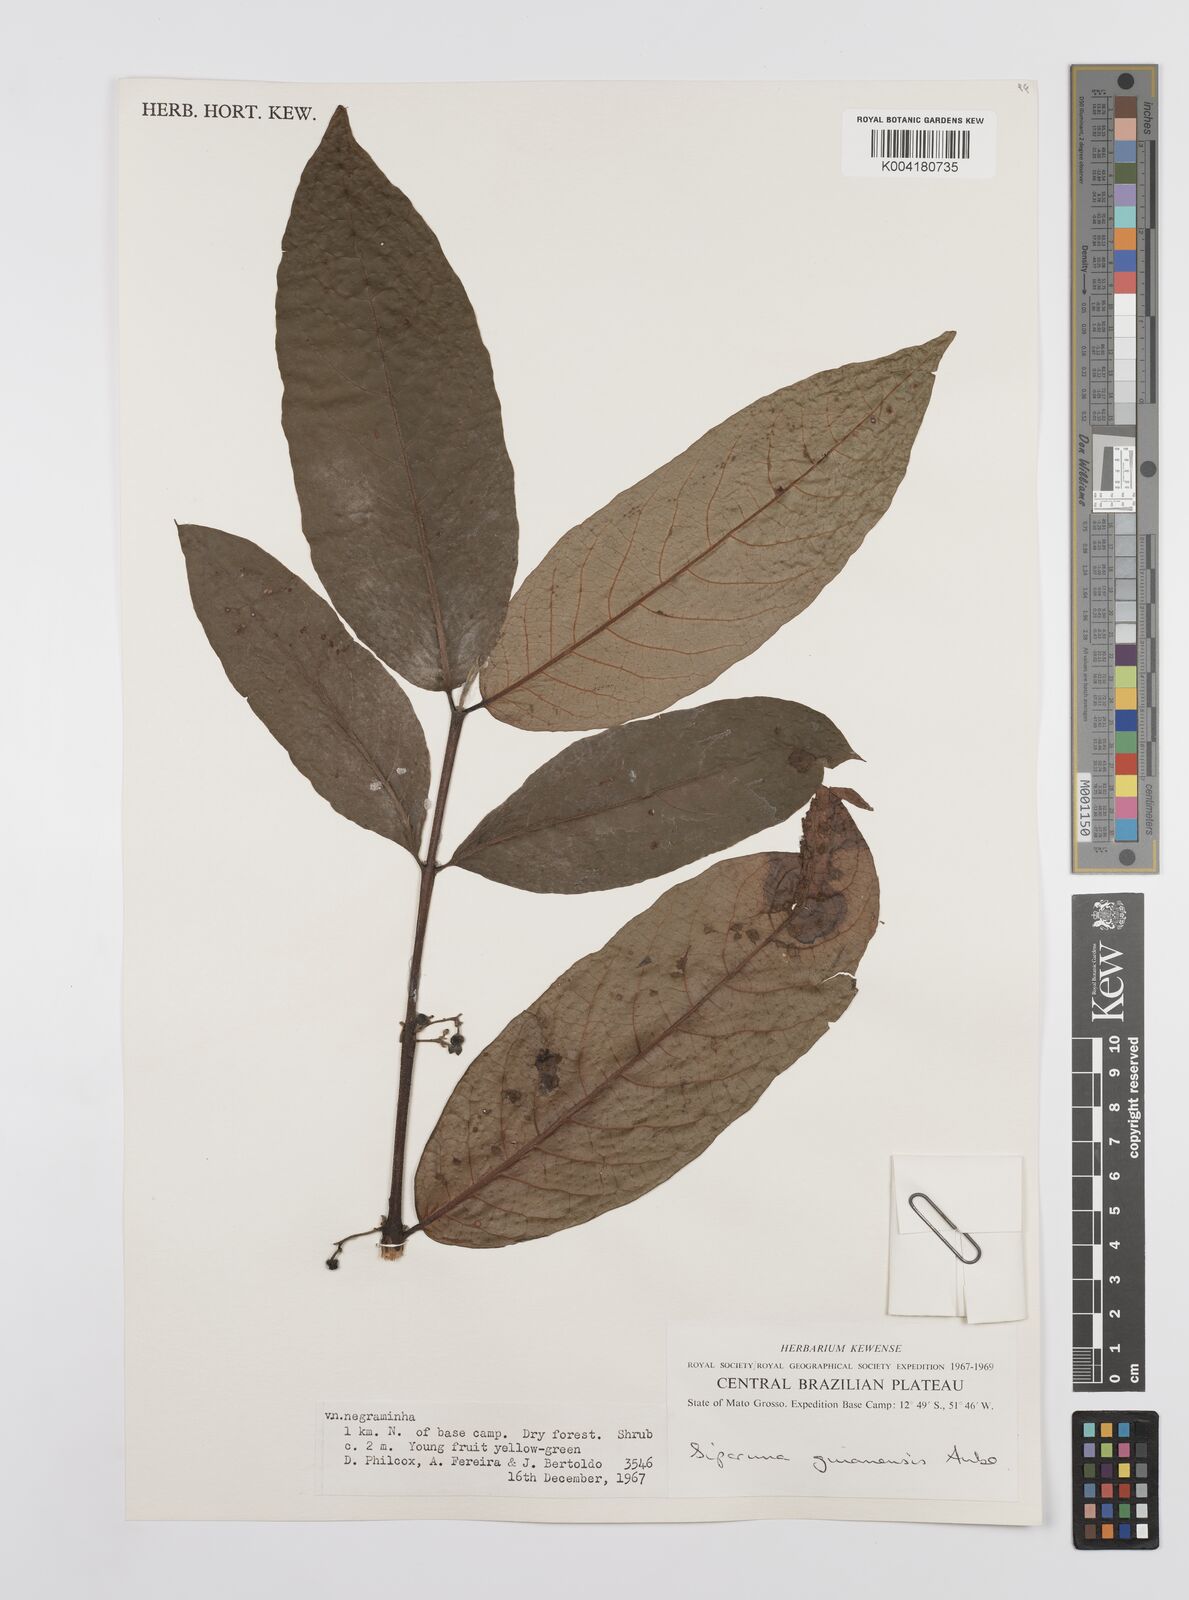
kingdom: Plantae
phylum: Tracheophyta
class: Magnoliopsida
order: Laurales
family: Siparunaceae
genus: Siparuna
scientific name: Siparuna guianensis
